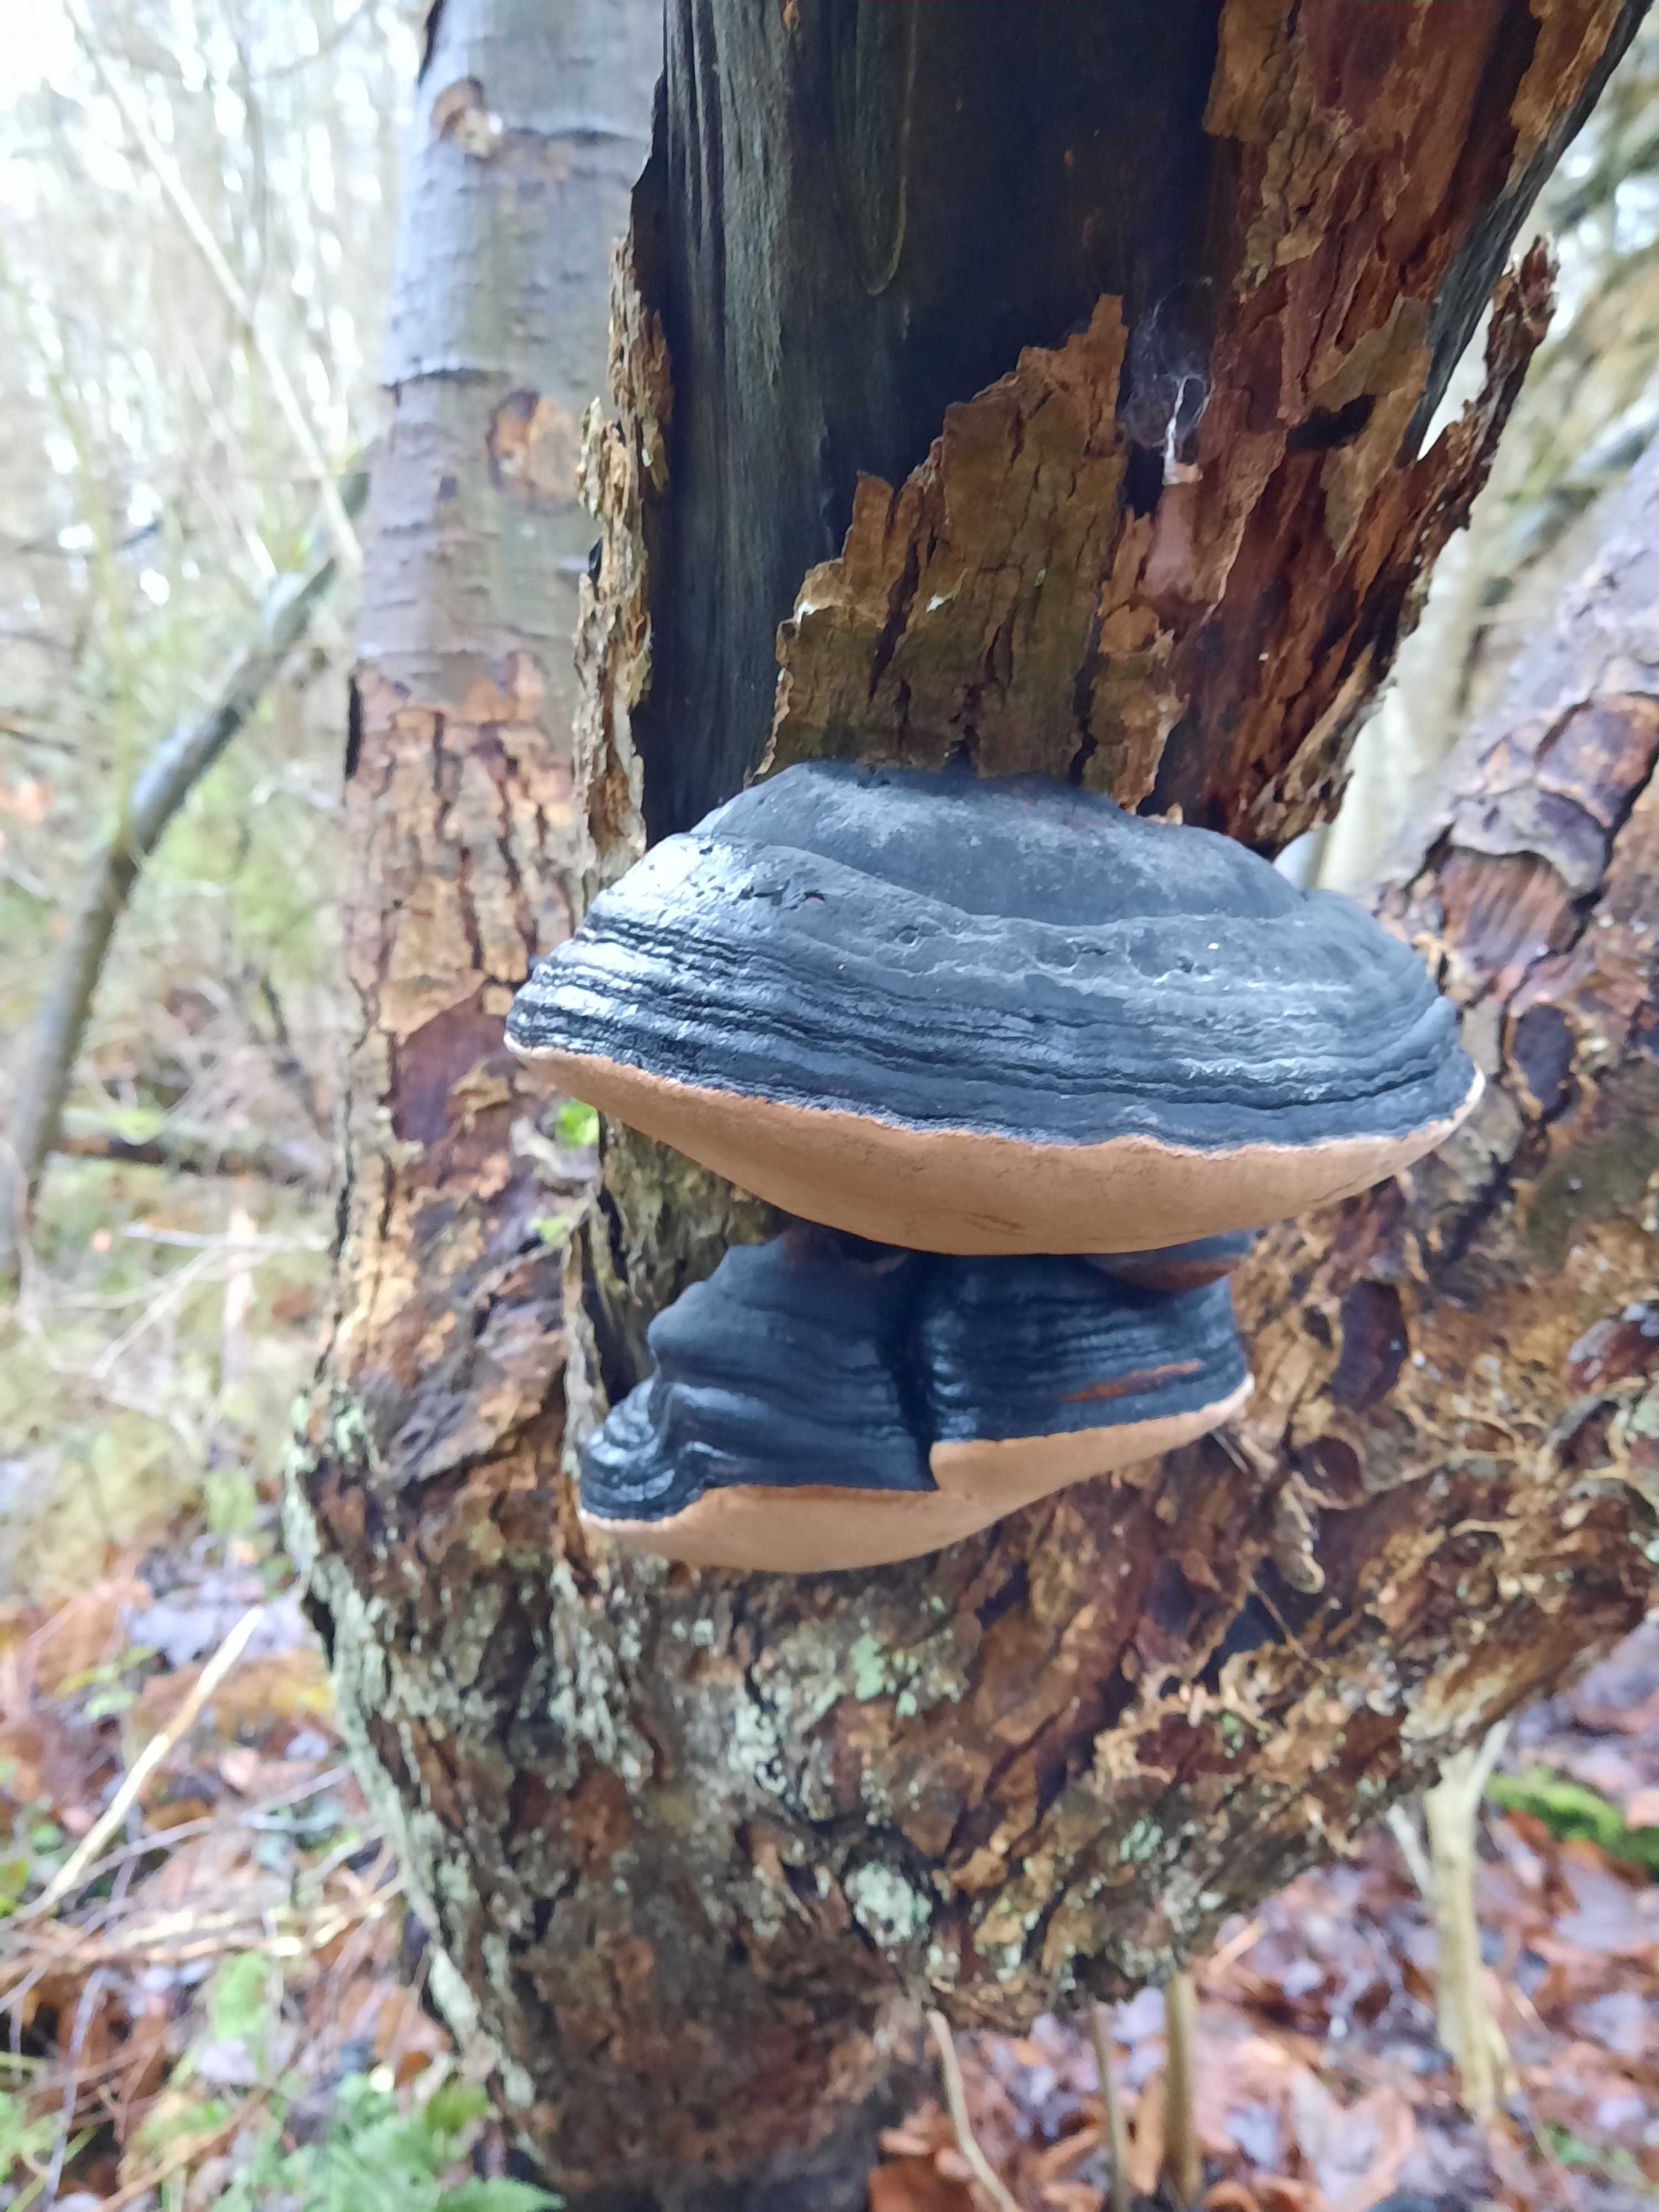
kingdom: Fungi
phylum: Basidiomycota
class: Agaricomycetes
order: Hymenochaetales
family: Hymenochaetaceae
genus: Phellinus
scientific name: Phellinus igniarius
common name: almindelig ildporesvamp
